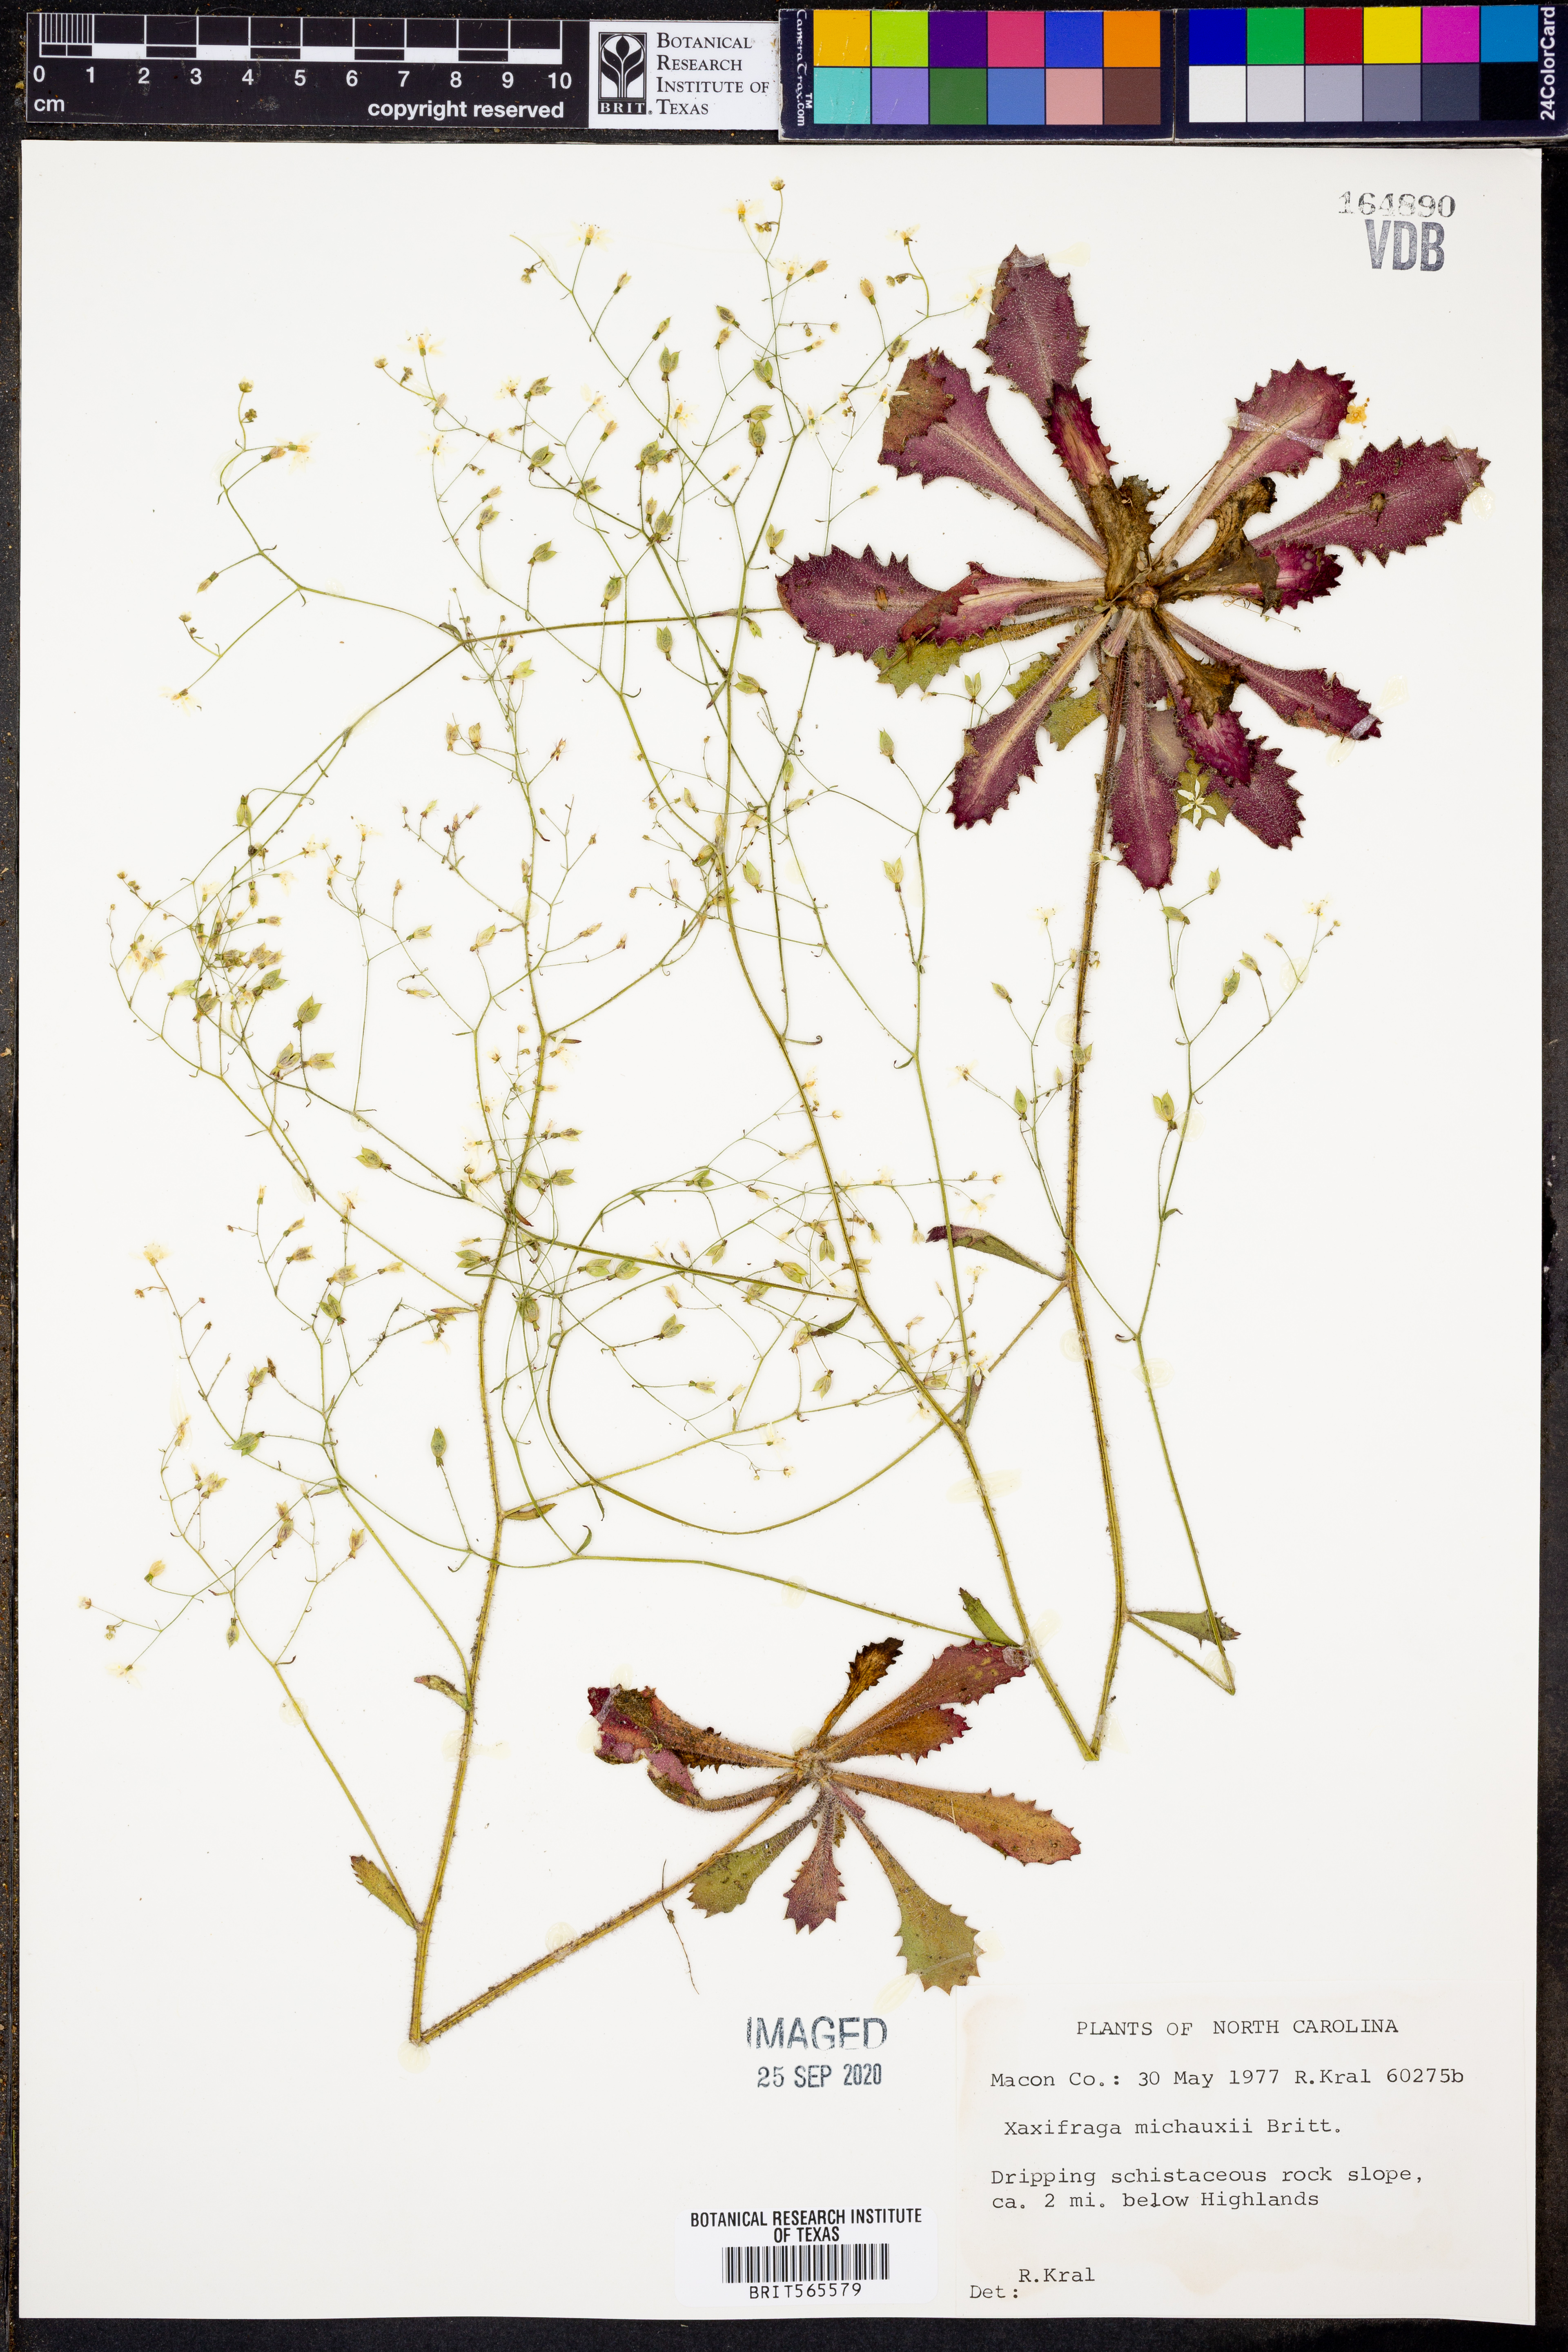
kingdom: Plantae
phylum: Tracheophyta
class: Magnoliopsida
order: Saxifragales
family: Saxifragaceae
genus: Micranthes
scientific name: Micranthes petiolaris
